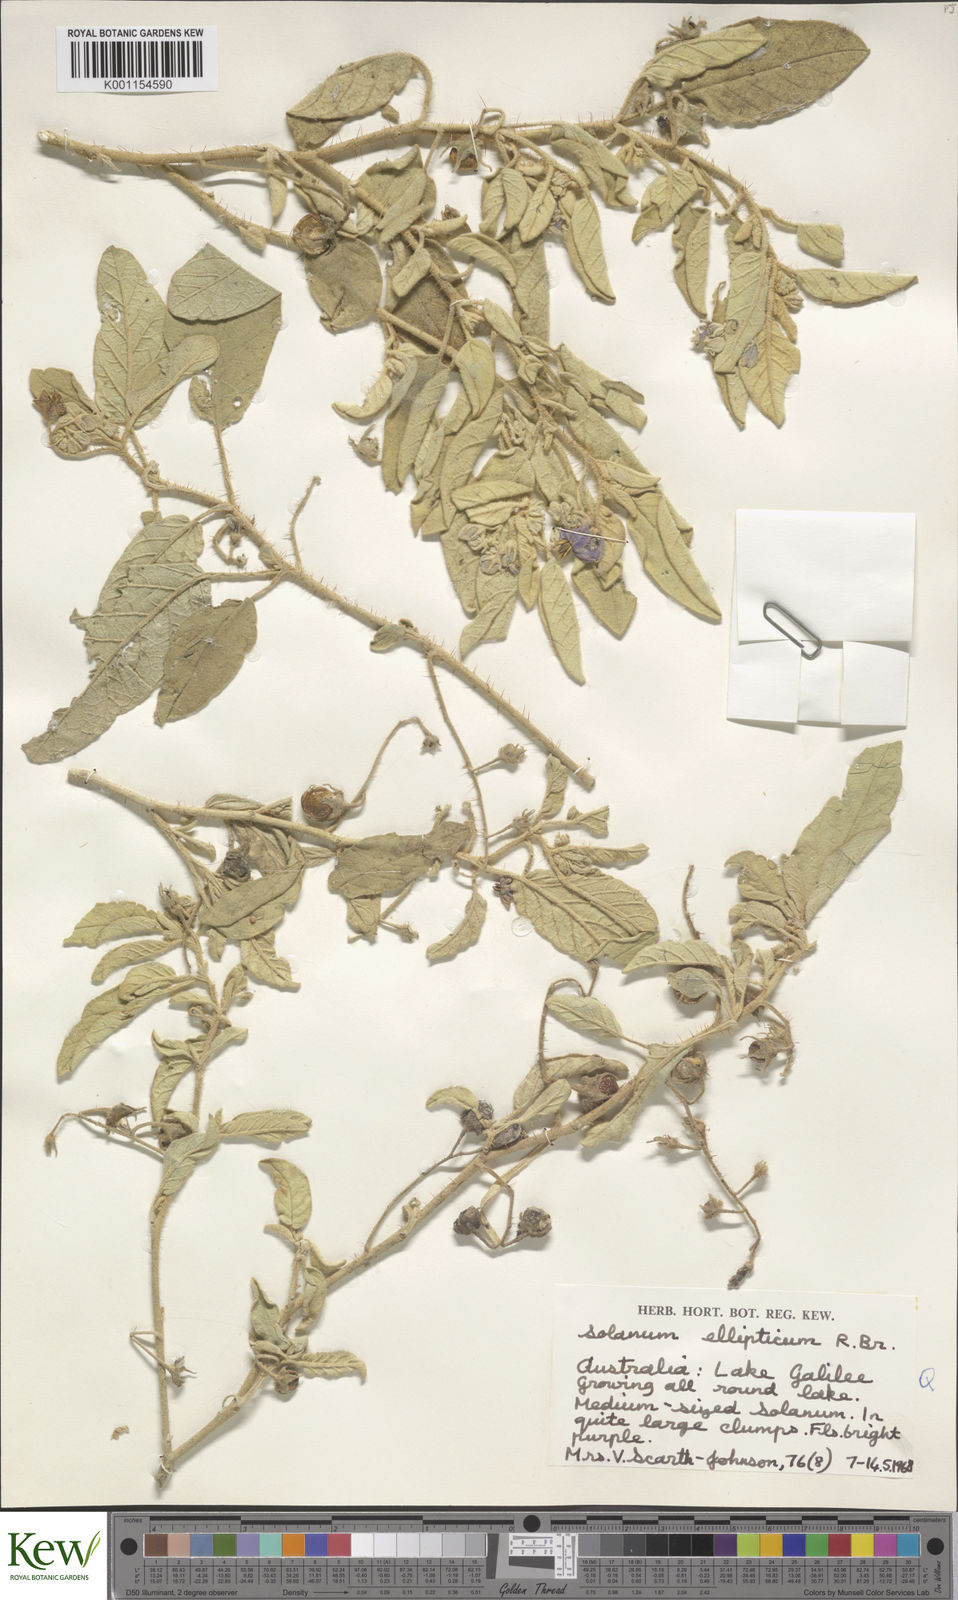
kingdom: Plantae
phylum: Tracheophyta
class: Magnoliopsida
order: Solanales
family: Solanaceae
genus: Solanum
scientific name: Solanum ellipticum
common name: Potato-bush
